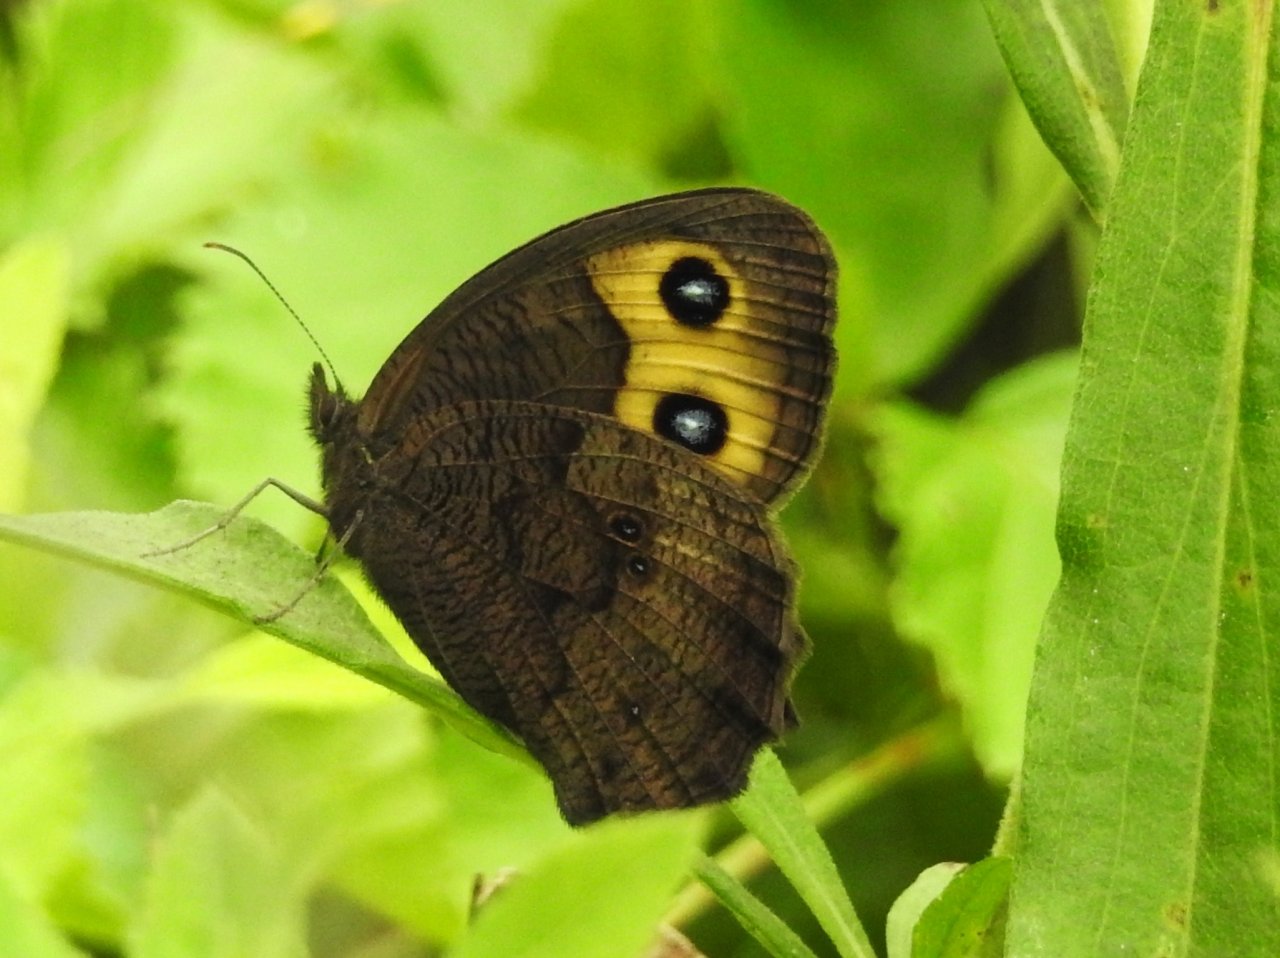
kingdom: Animalia
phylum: Arthropoda
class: Insecta
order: Lepidoptera
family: Nymphalidae
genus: Cercyonis
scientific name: Cercyonis pegala
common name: Common Wood-Nymph
